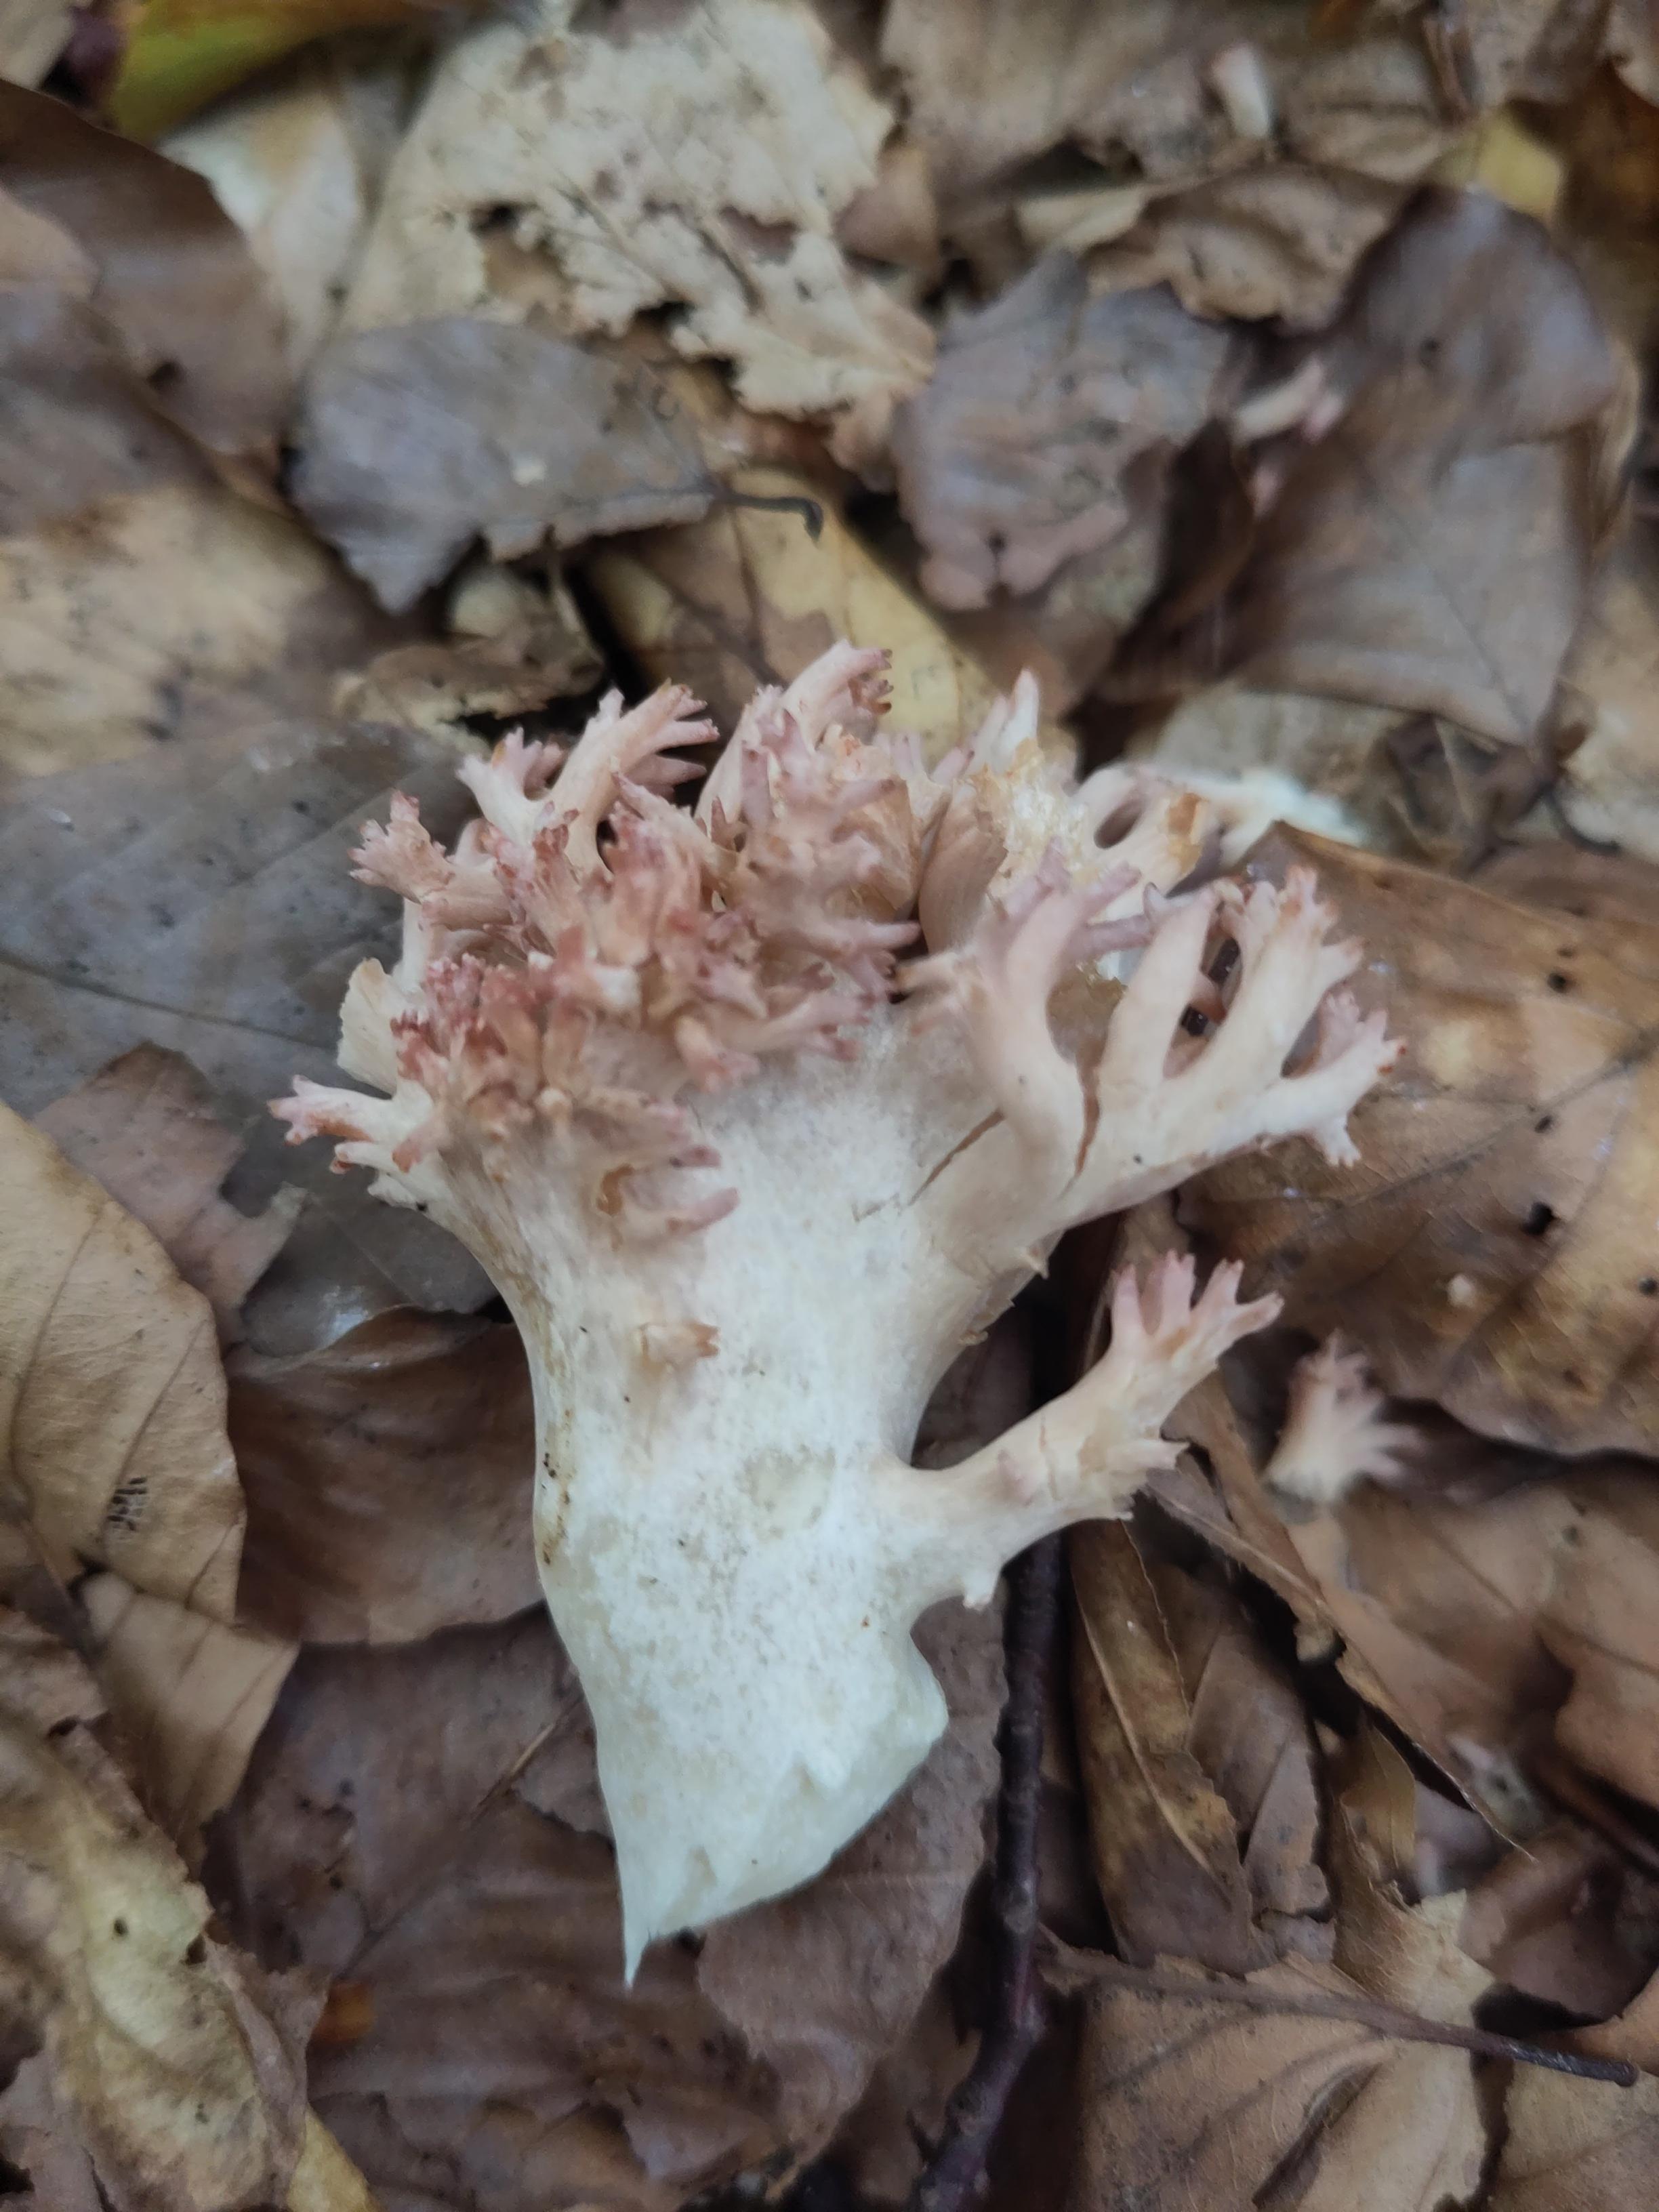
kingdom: Fungi
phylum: Basidiomycota
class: Agaricomycetes
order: Gomphales
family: Gomphaceae
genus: Ramaria
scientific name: Ramaria botrytis
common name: drue-koralsvamp
